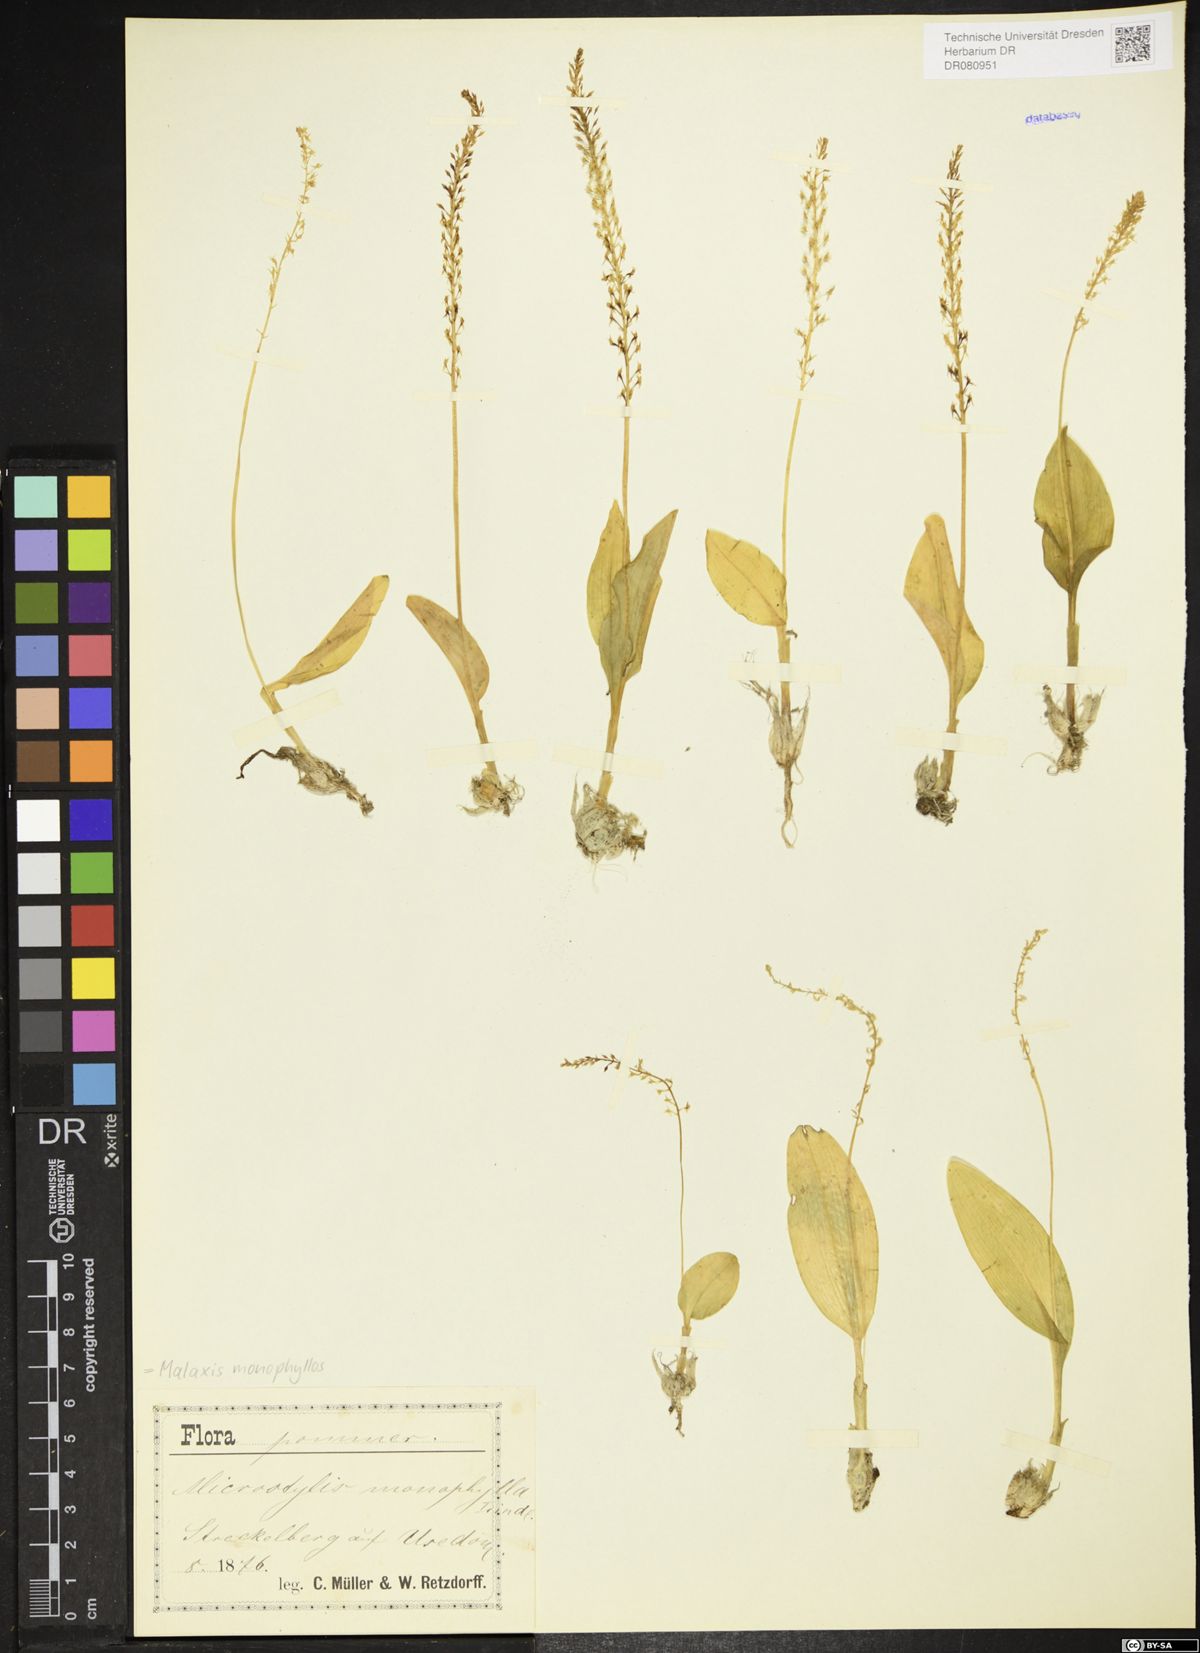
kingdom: Plantae
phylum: Tracheophyta
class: Liliopsida
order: Asparagales
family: Orchidaceae
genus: Malaxis
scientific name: Malaxis monophyllos
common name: White adder's-mouth
